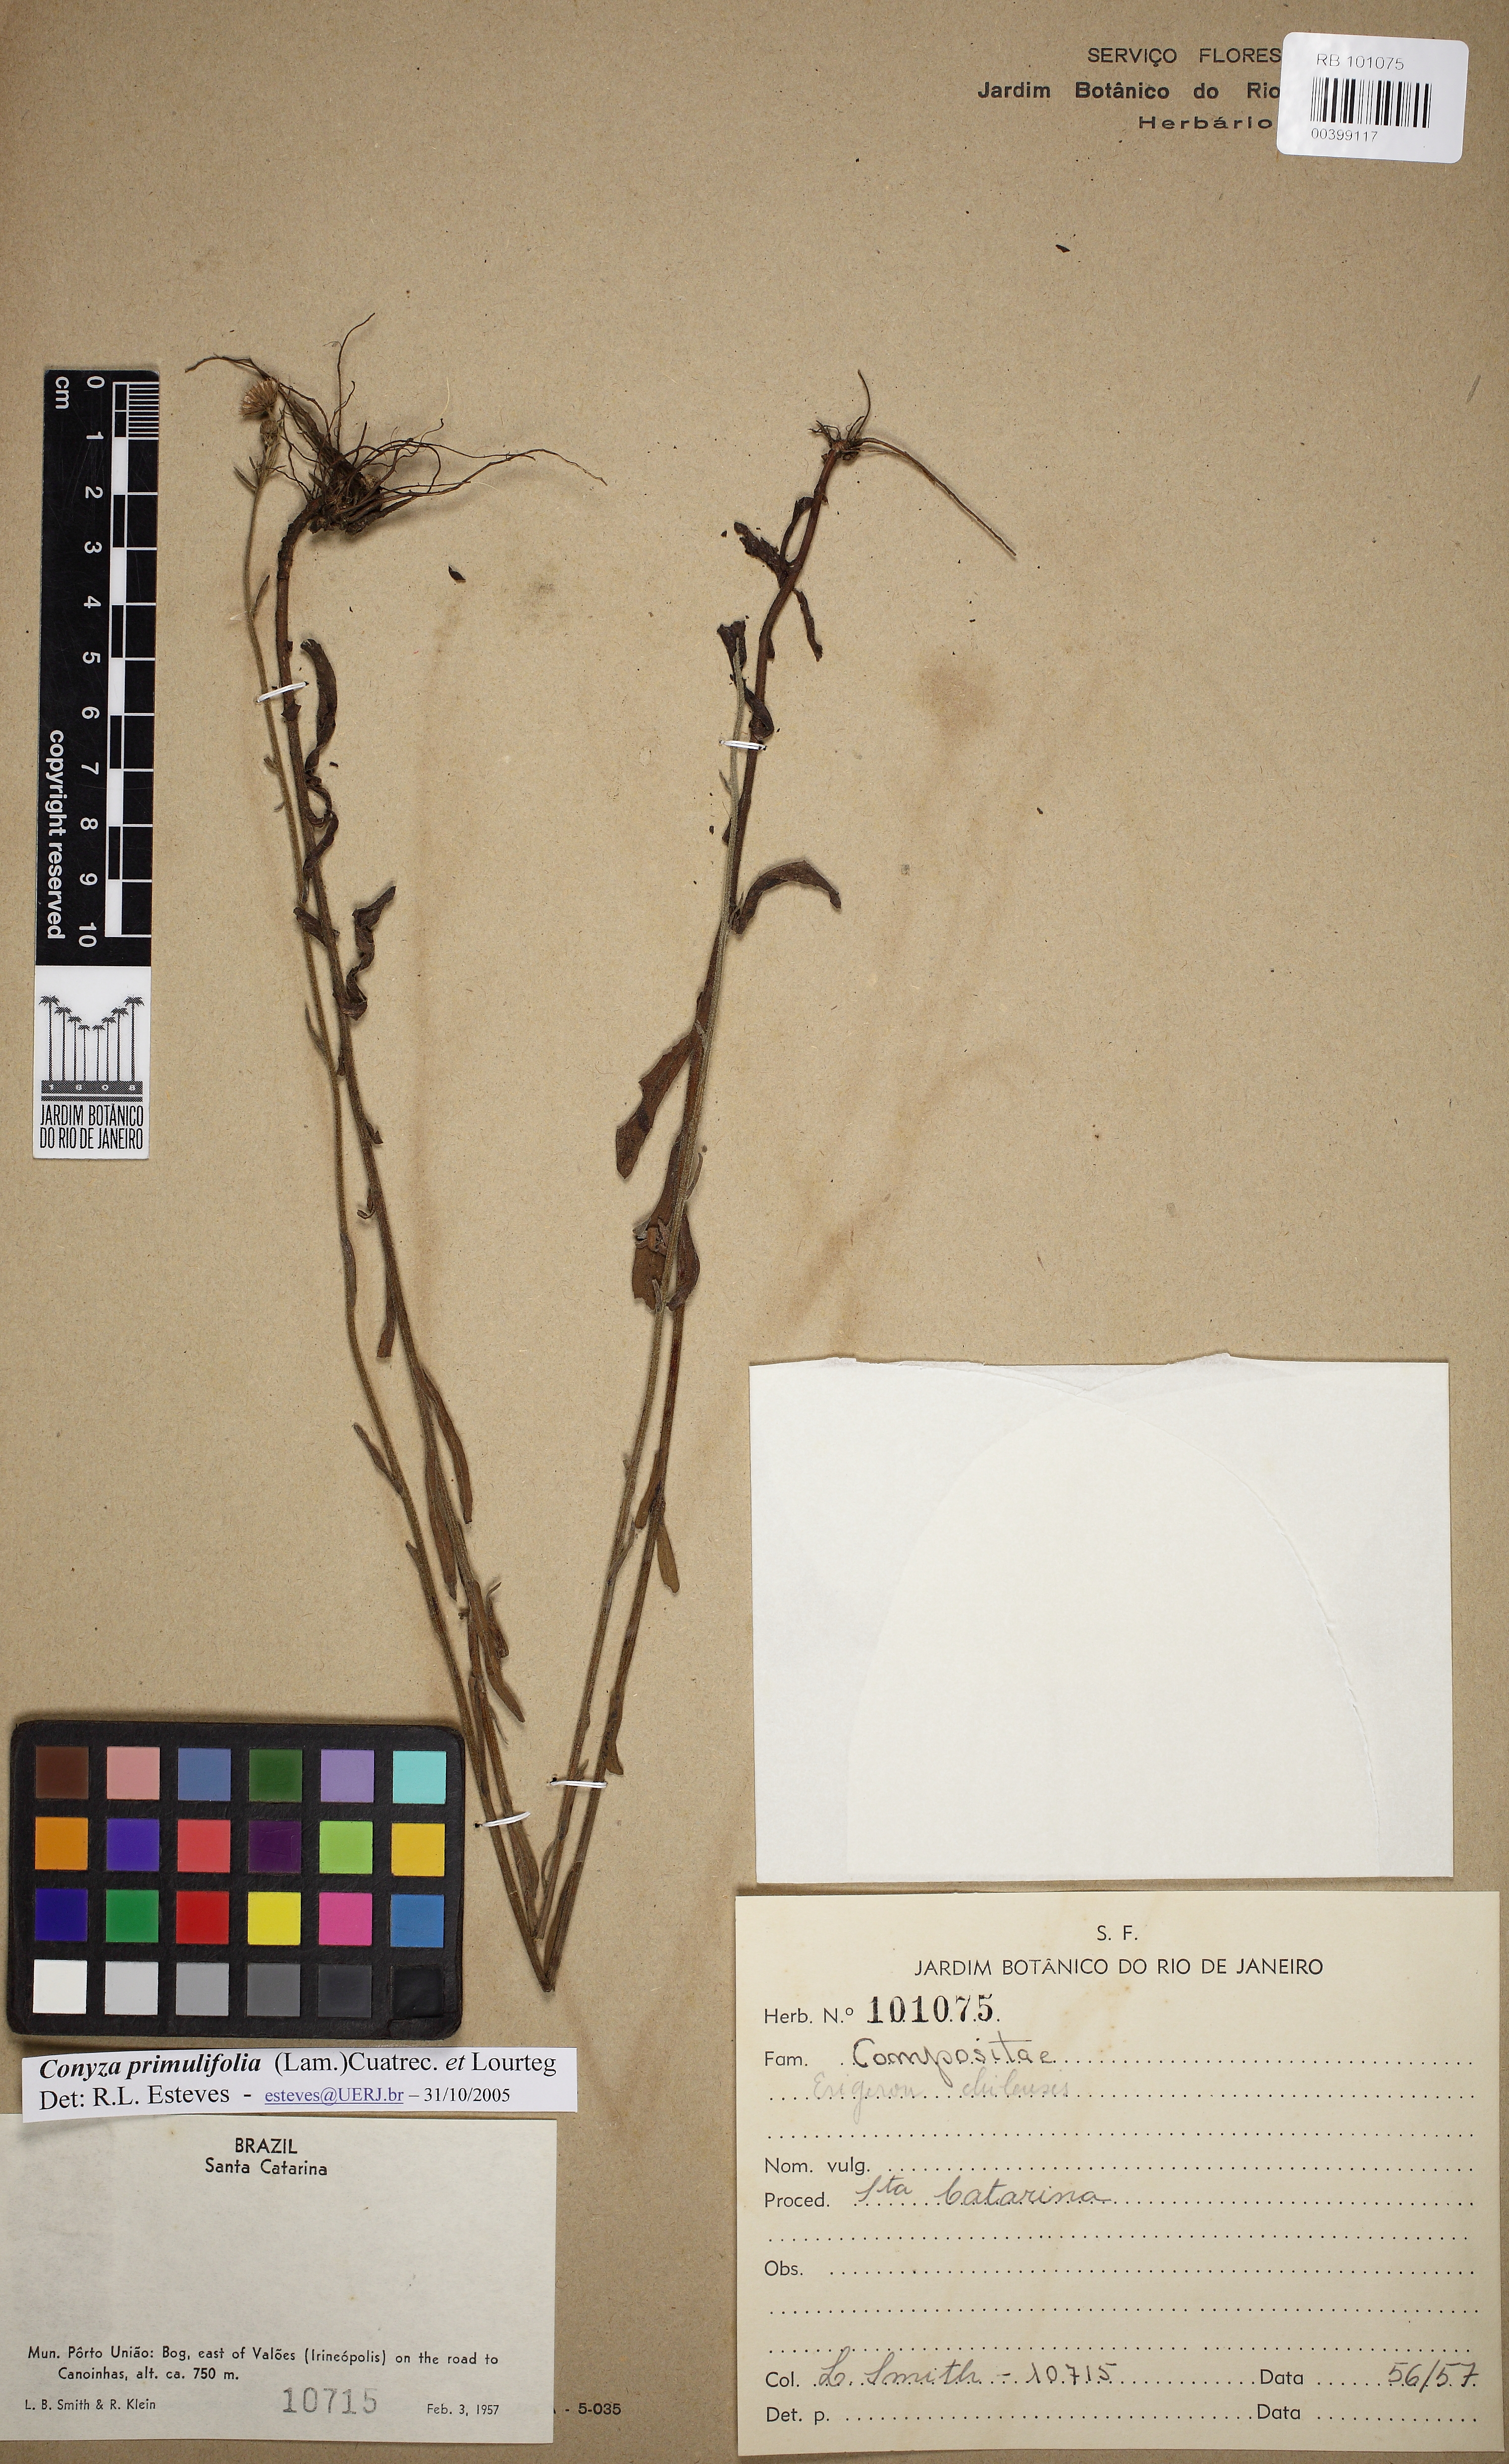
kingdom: Plantae
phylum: Tracheophyta
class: Magnoliopsida
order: Asterales
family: Asteraceae
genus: Erigeron
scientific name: Erigeron primulifolius
